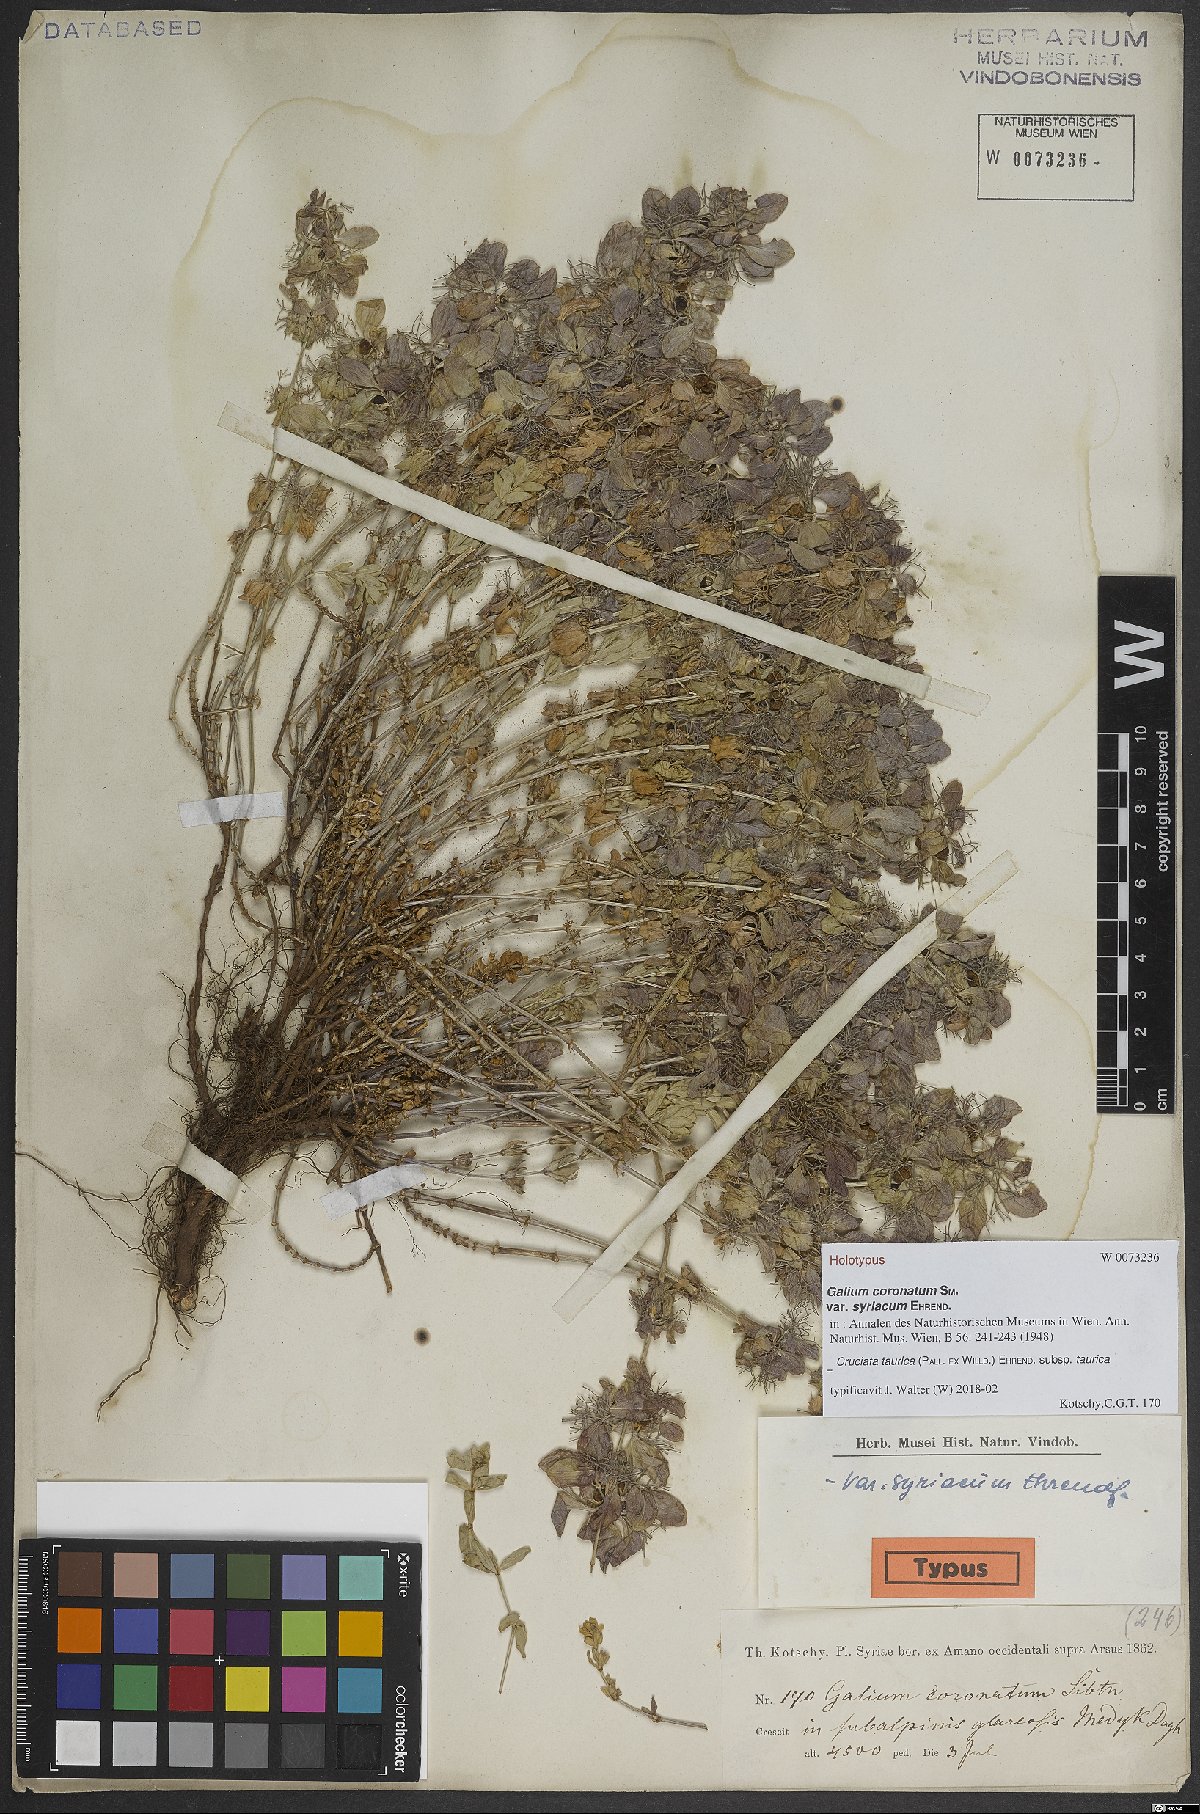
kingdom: Plantae
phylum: Tracheophyta
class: Magnoliopsida
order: Gentianales
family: Rubiaceae
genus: Cruciata
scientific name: Cruciata taurica
